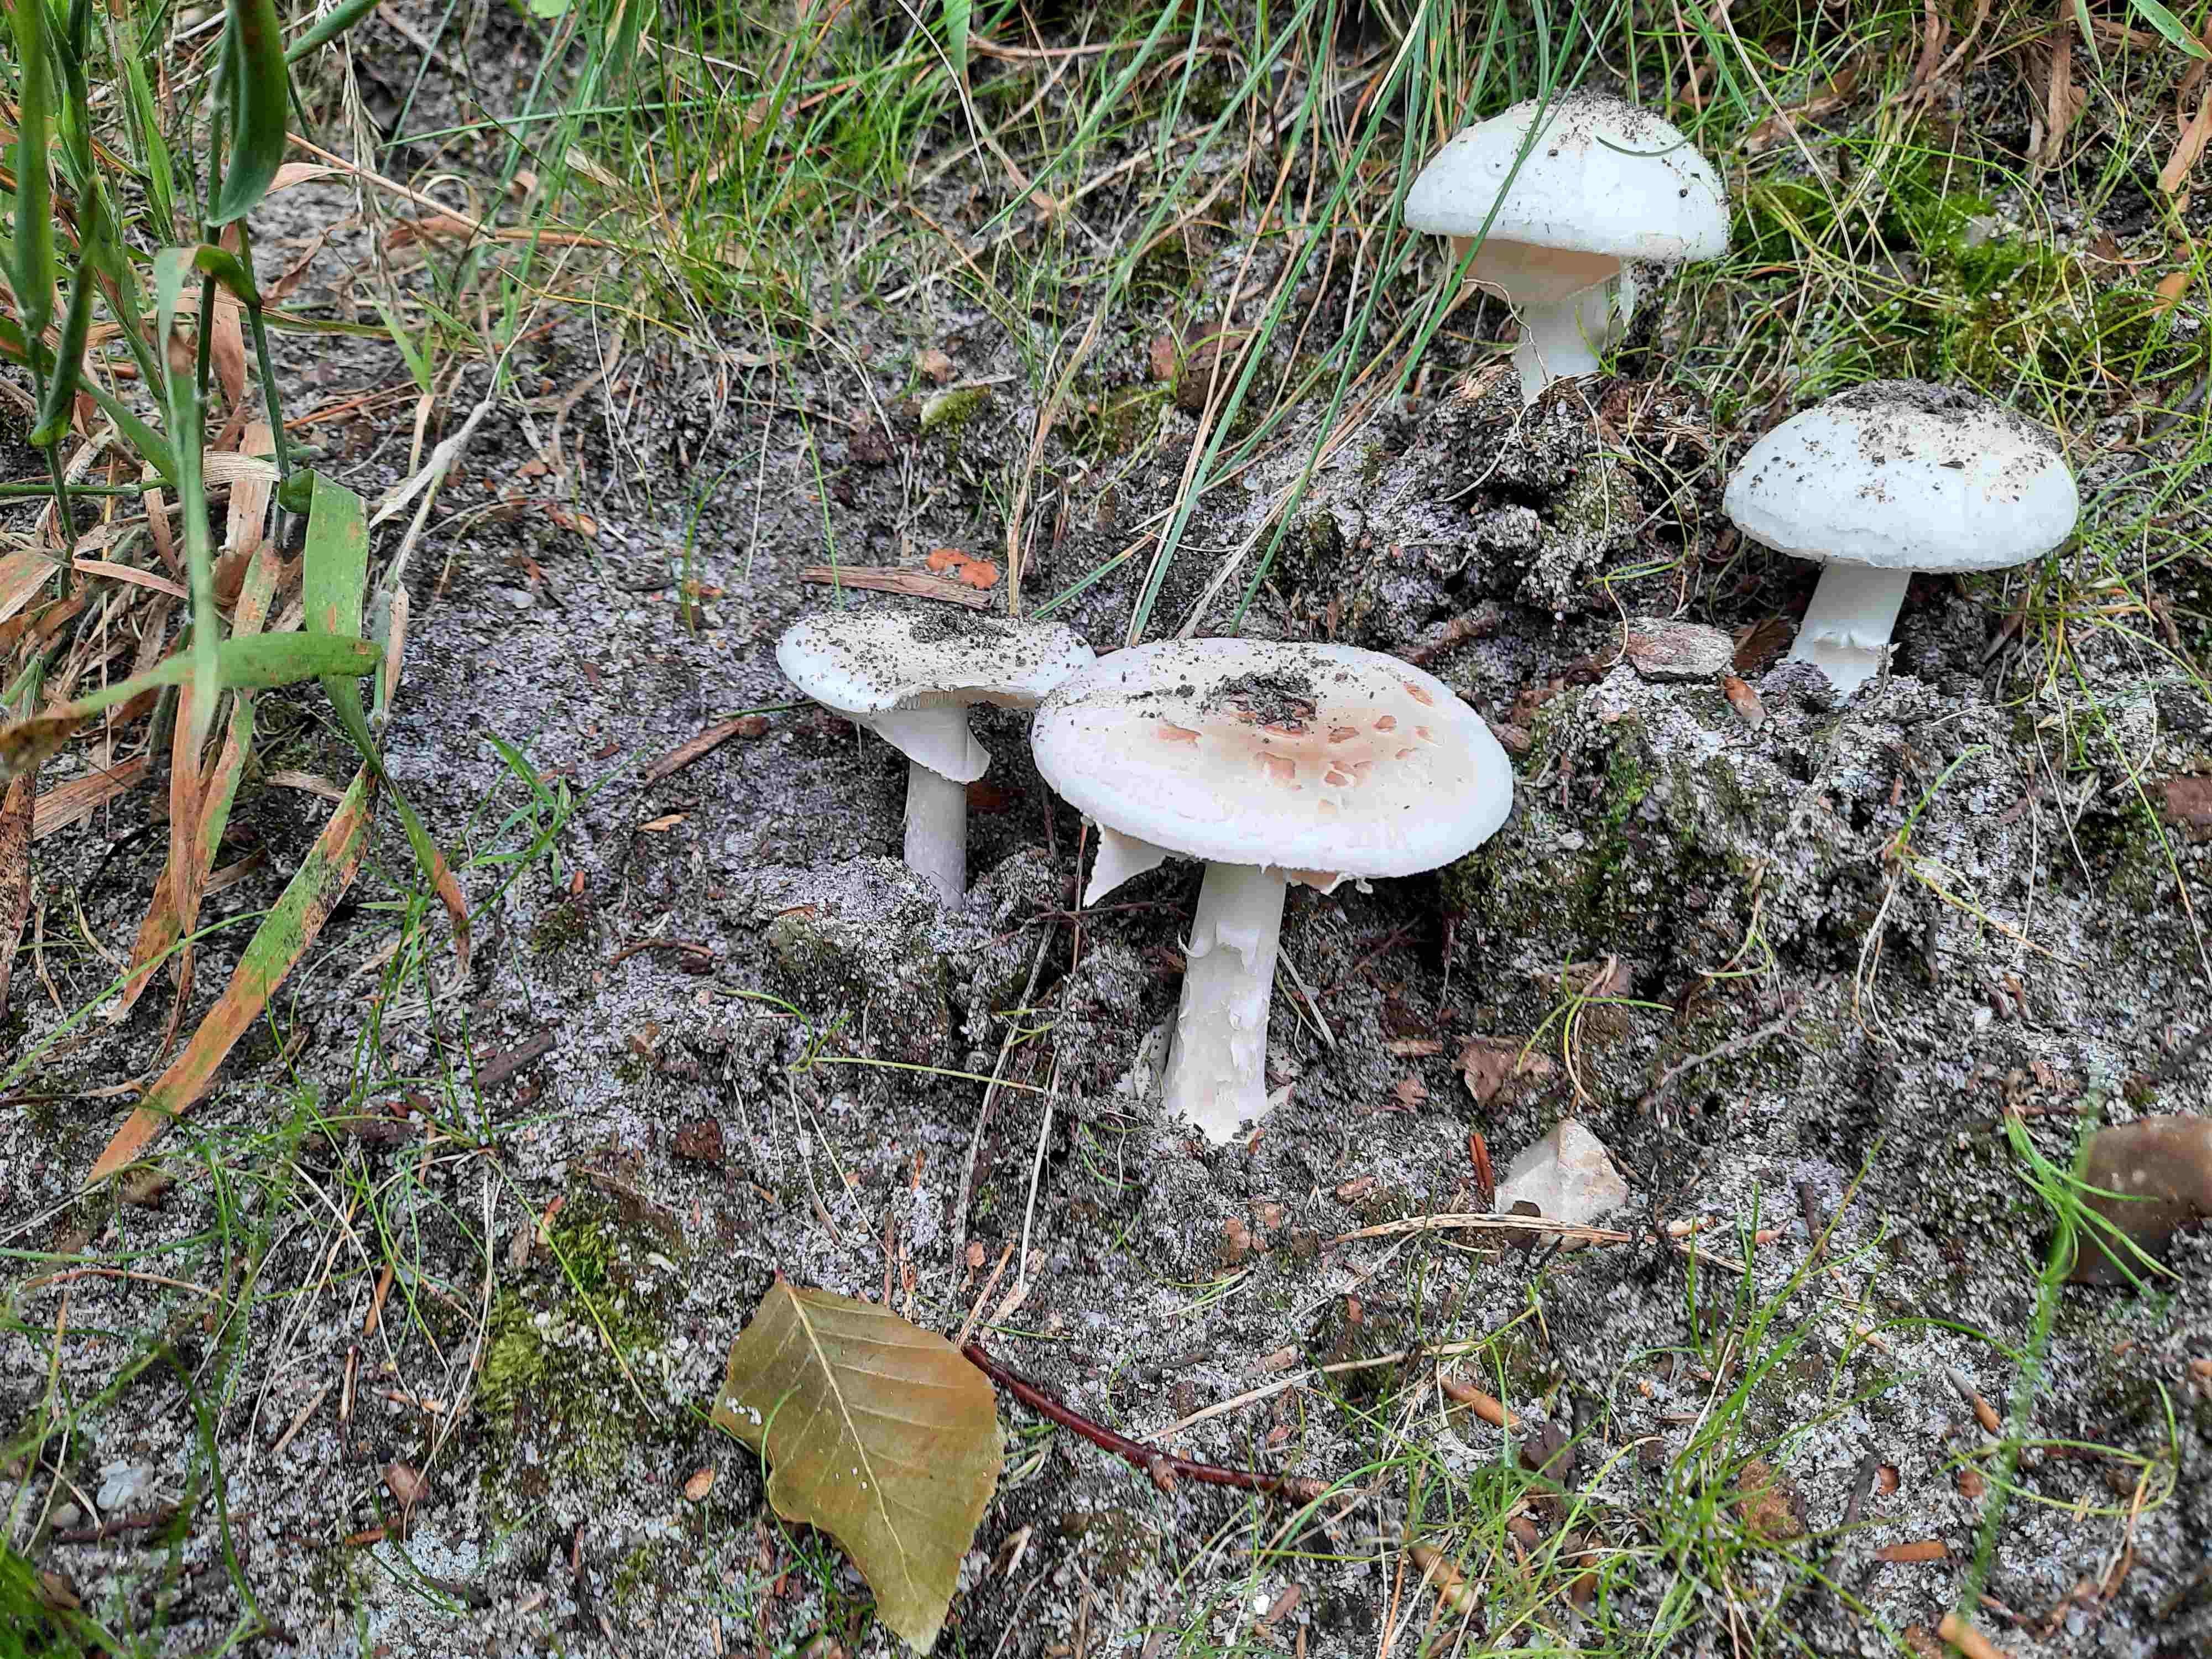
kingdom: Fungi
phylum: Basidiomycota
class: Agaricomycetes
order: Agaricales
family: Amanitaceae
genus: Amanita
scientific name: Amanita citrina
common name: False death-cap
